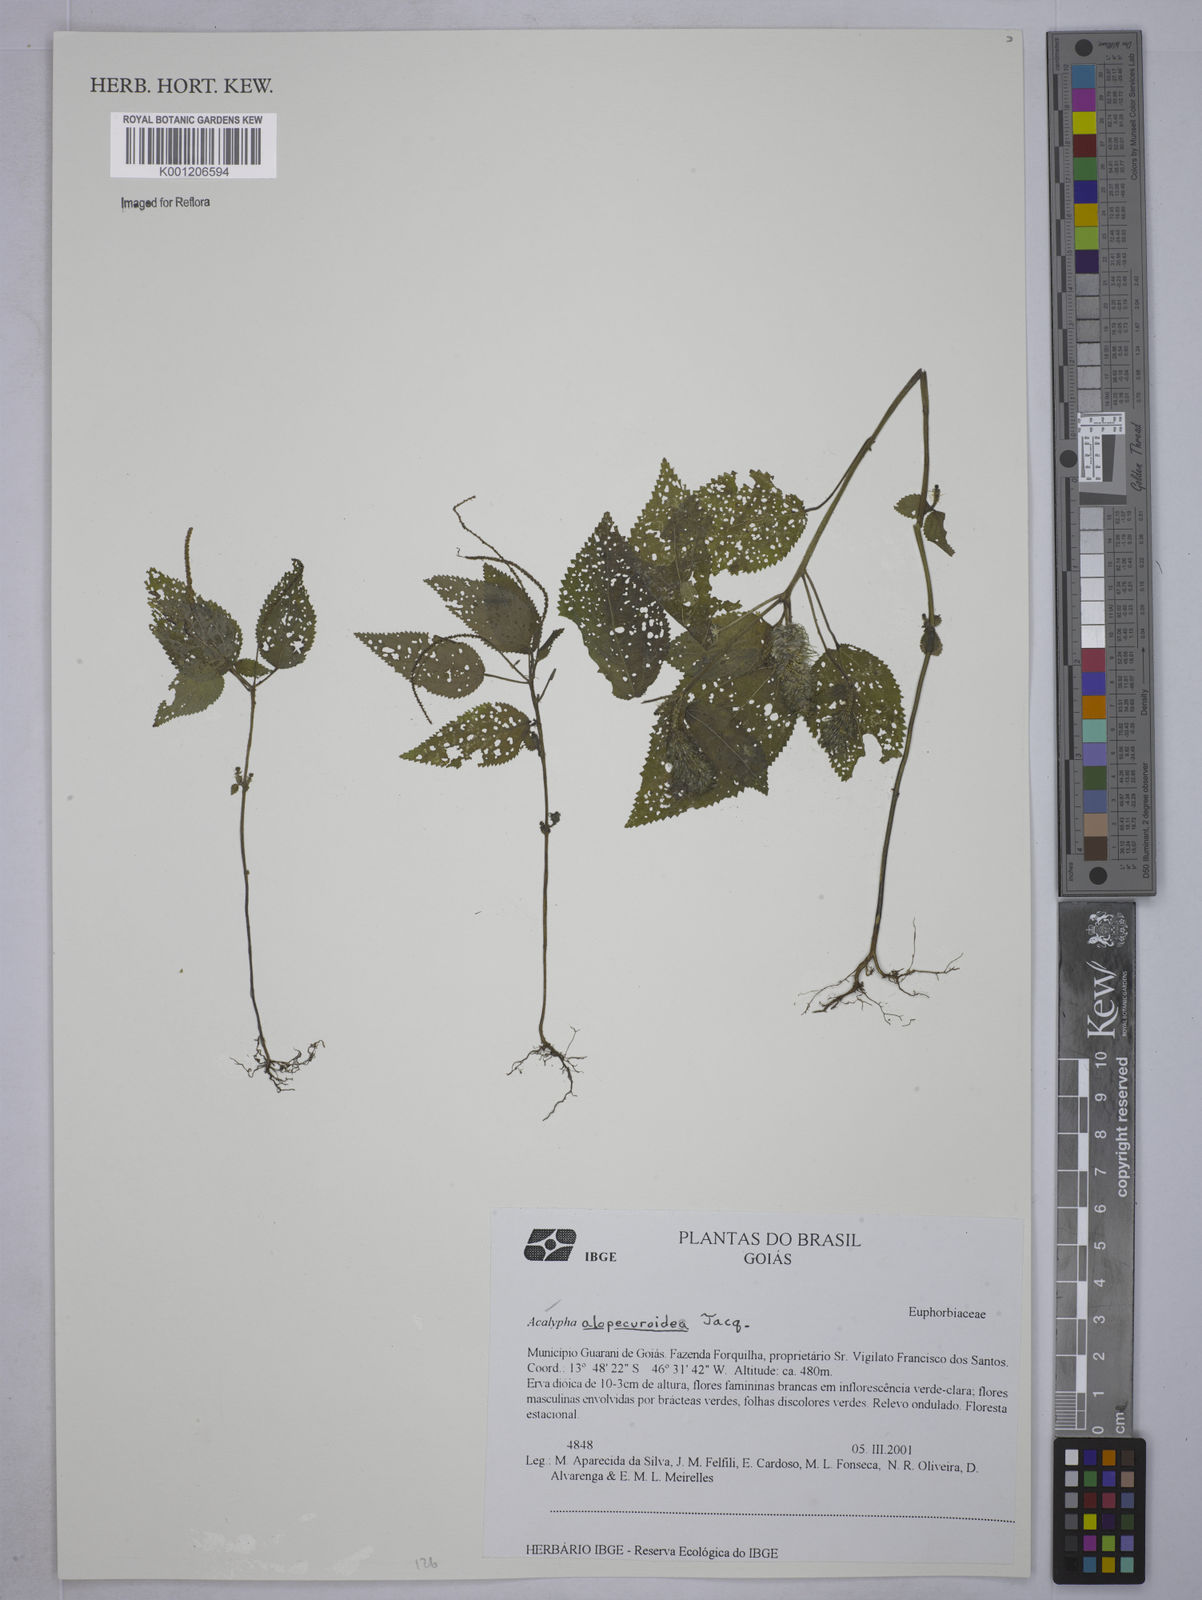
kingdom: Plantae
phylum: Tracheophyta
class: Magnoliopsida
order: Malpighiales
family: Euphorbiaceae
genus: Acalypha
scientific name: Acalypha alopecuroidea
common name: Foxtail copperleaf
